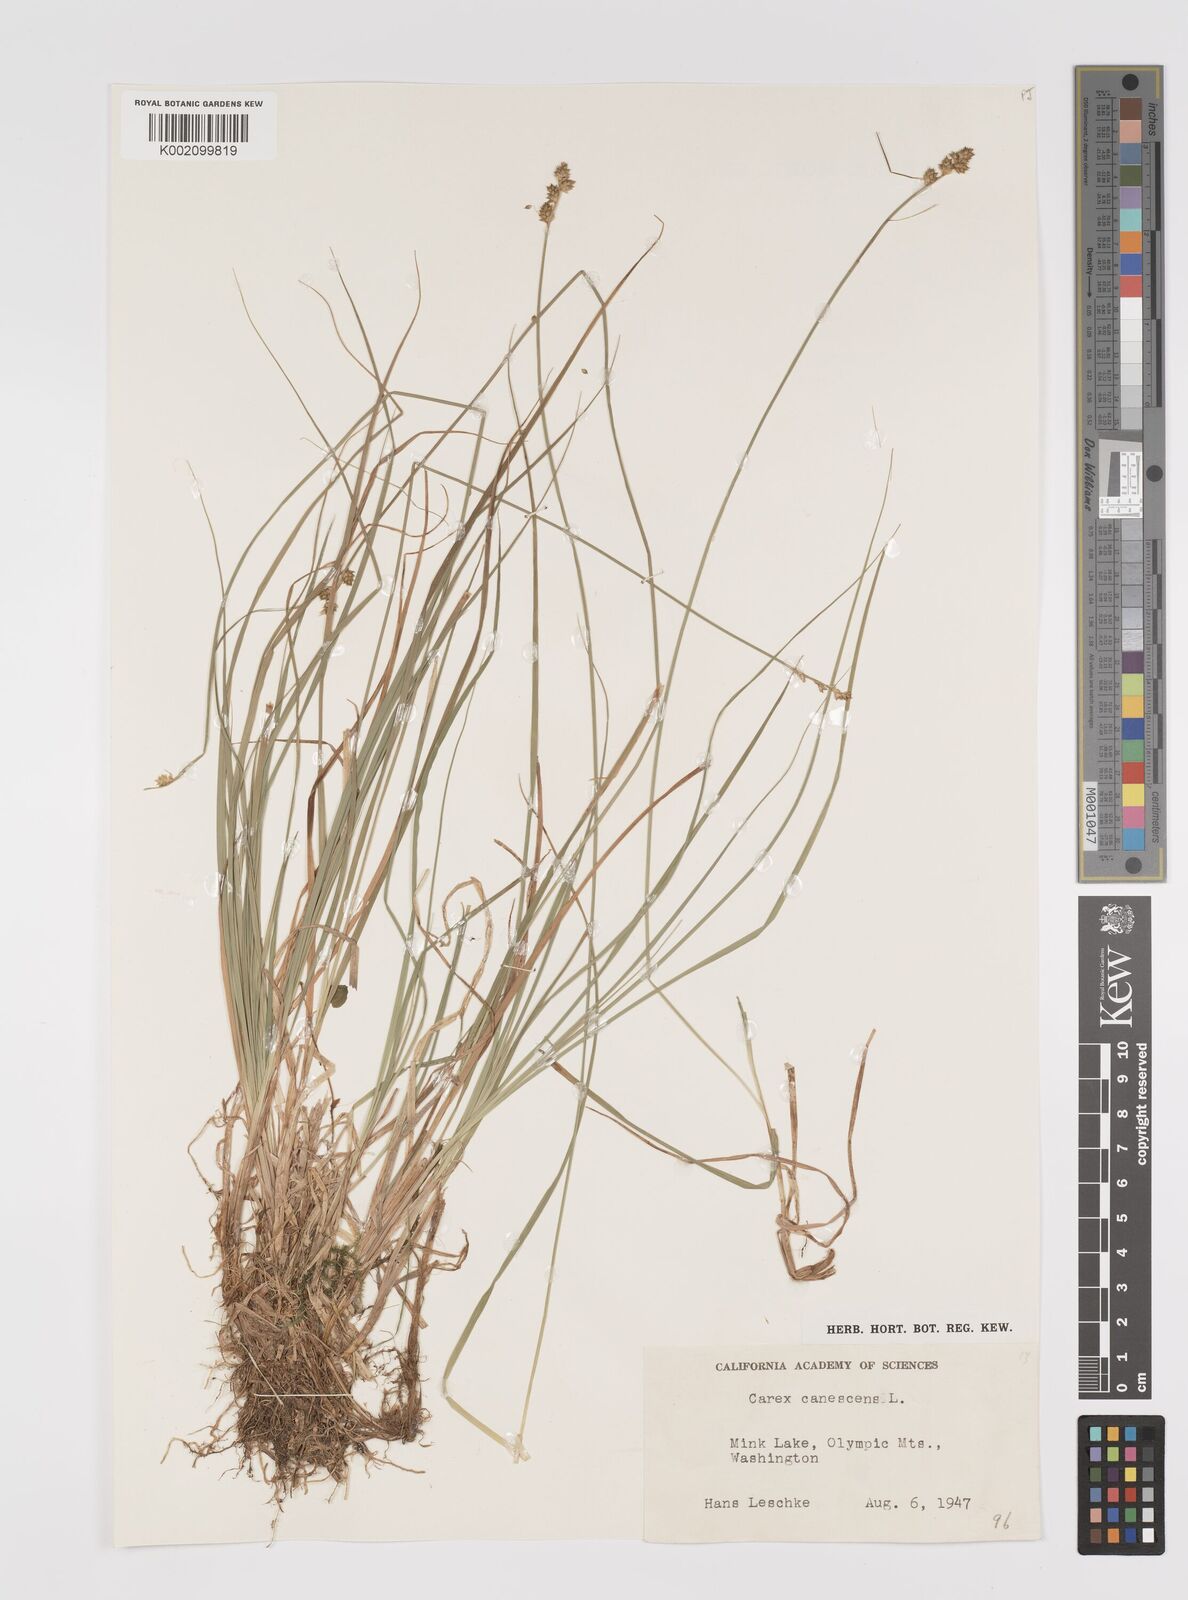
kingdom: Plantae
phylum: Tracheophyta
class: Liliopsida
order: Poales
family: Cyperaceae
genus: Carex
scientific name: Carex curta
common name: White sedge
